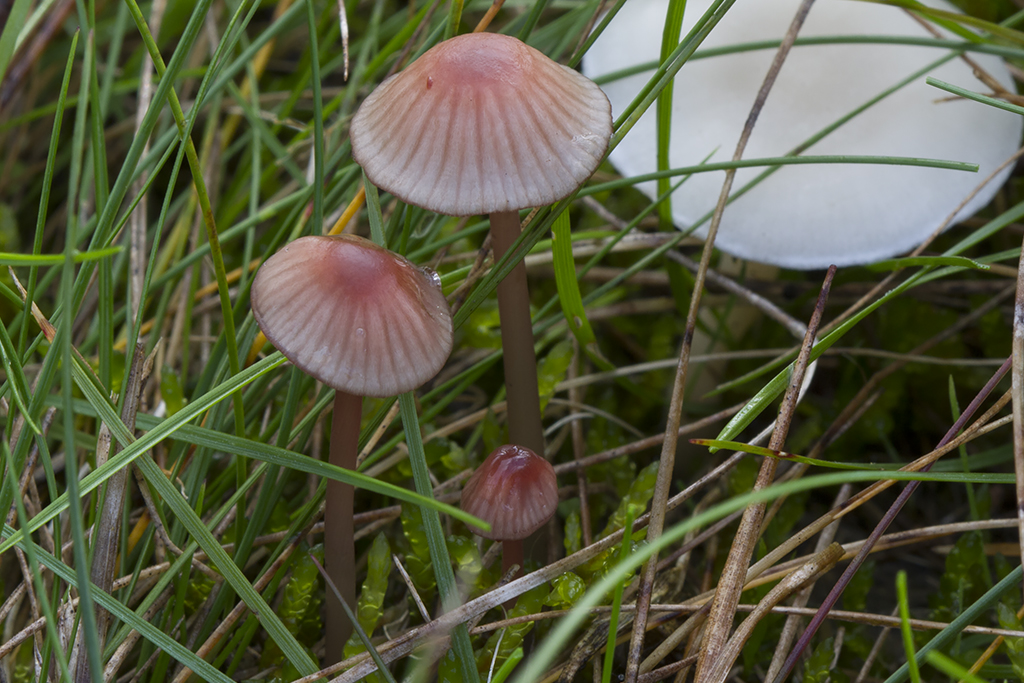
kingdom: Fungi
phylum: Basidiomycota
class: Agaricomycetes
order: Agaricales
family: Mycenaceae
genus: Mycena
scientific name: Mycena sanguinolenta
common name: rødmælket huesvamp
